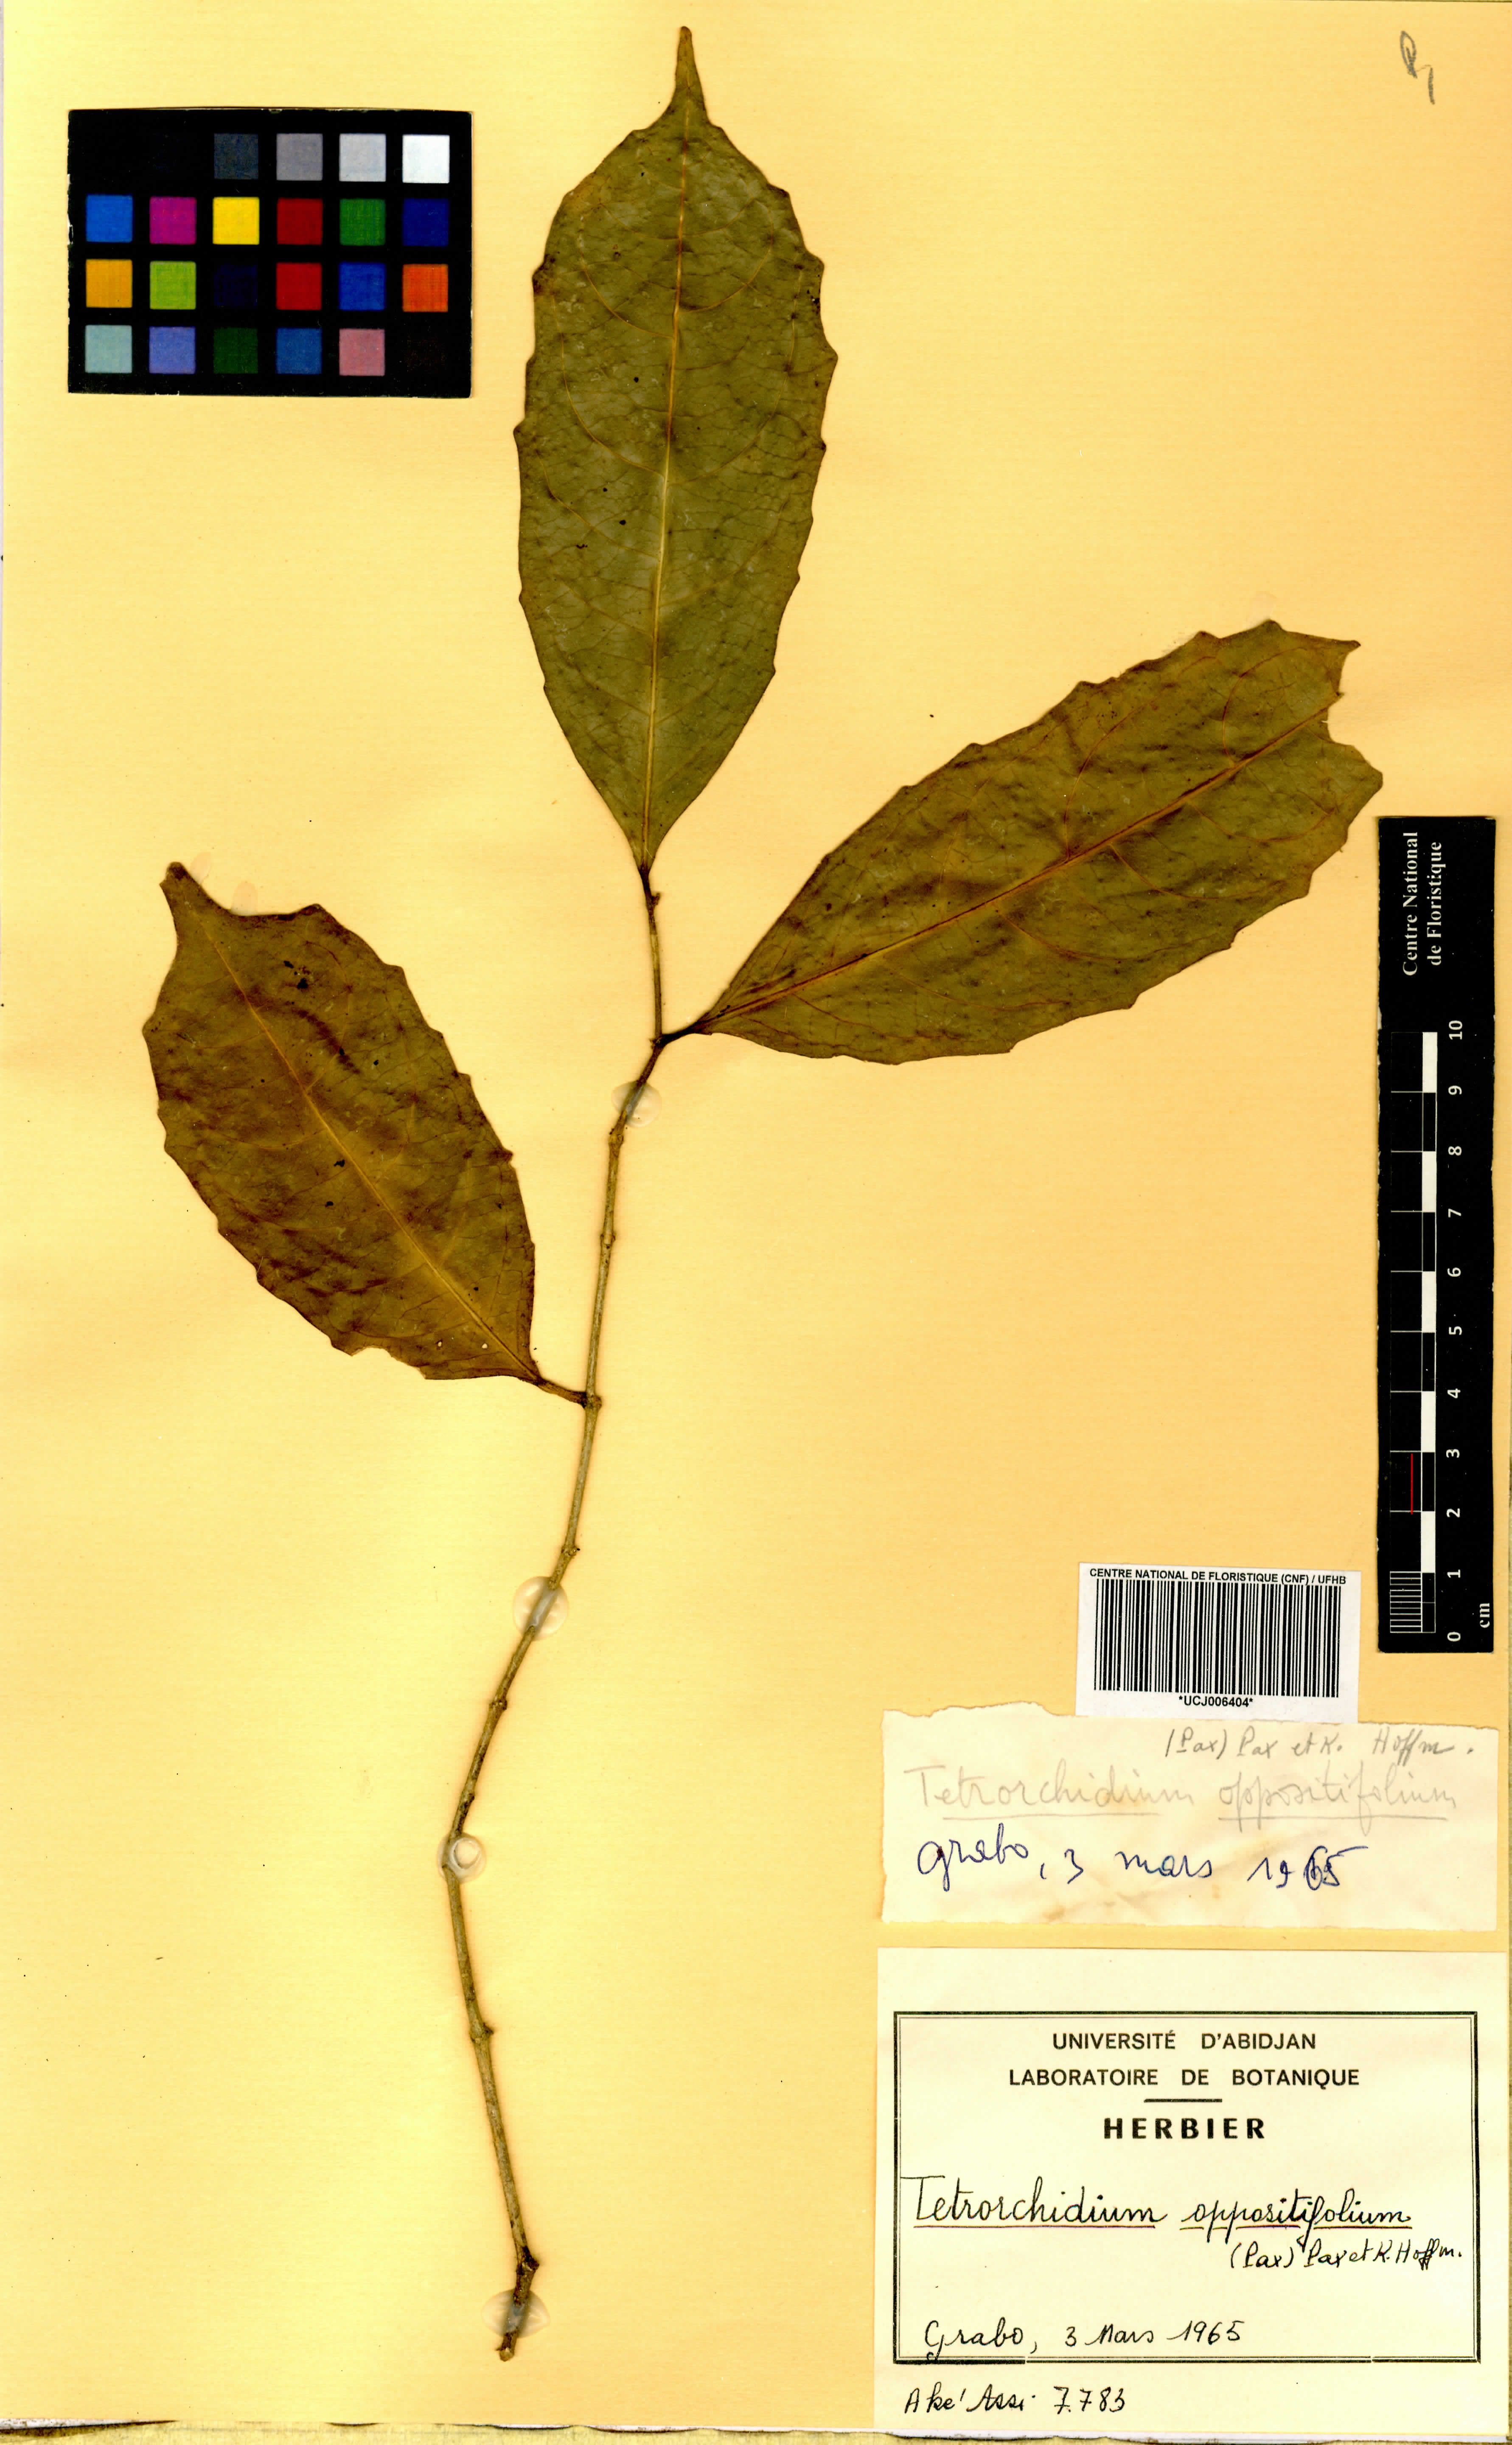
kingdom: Plantae
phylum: Tracheophyta
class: Magnoliopsida
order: Malpighiales
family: Euphorbiaceae
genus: Tetrorchidium
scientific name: Tetrorchidium oppositifolium
